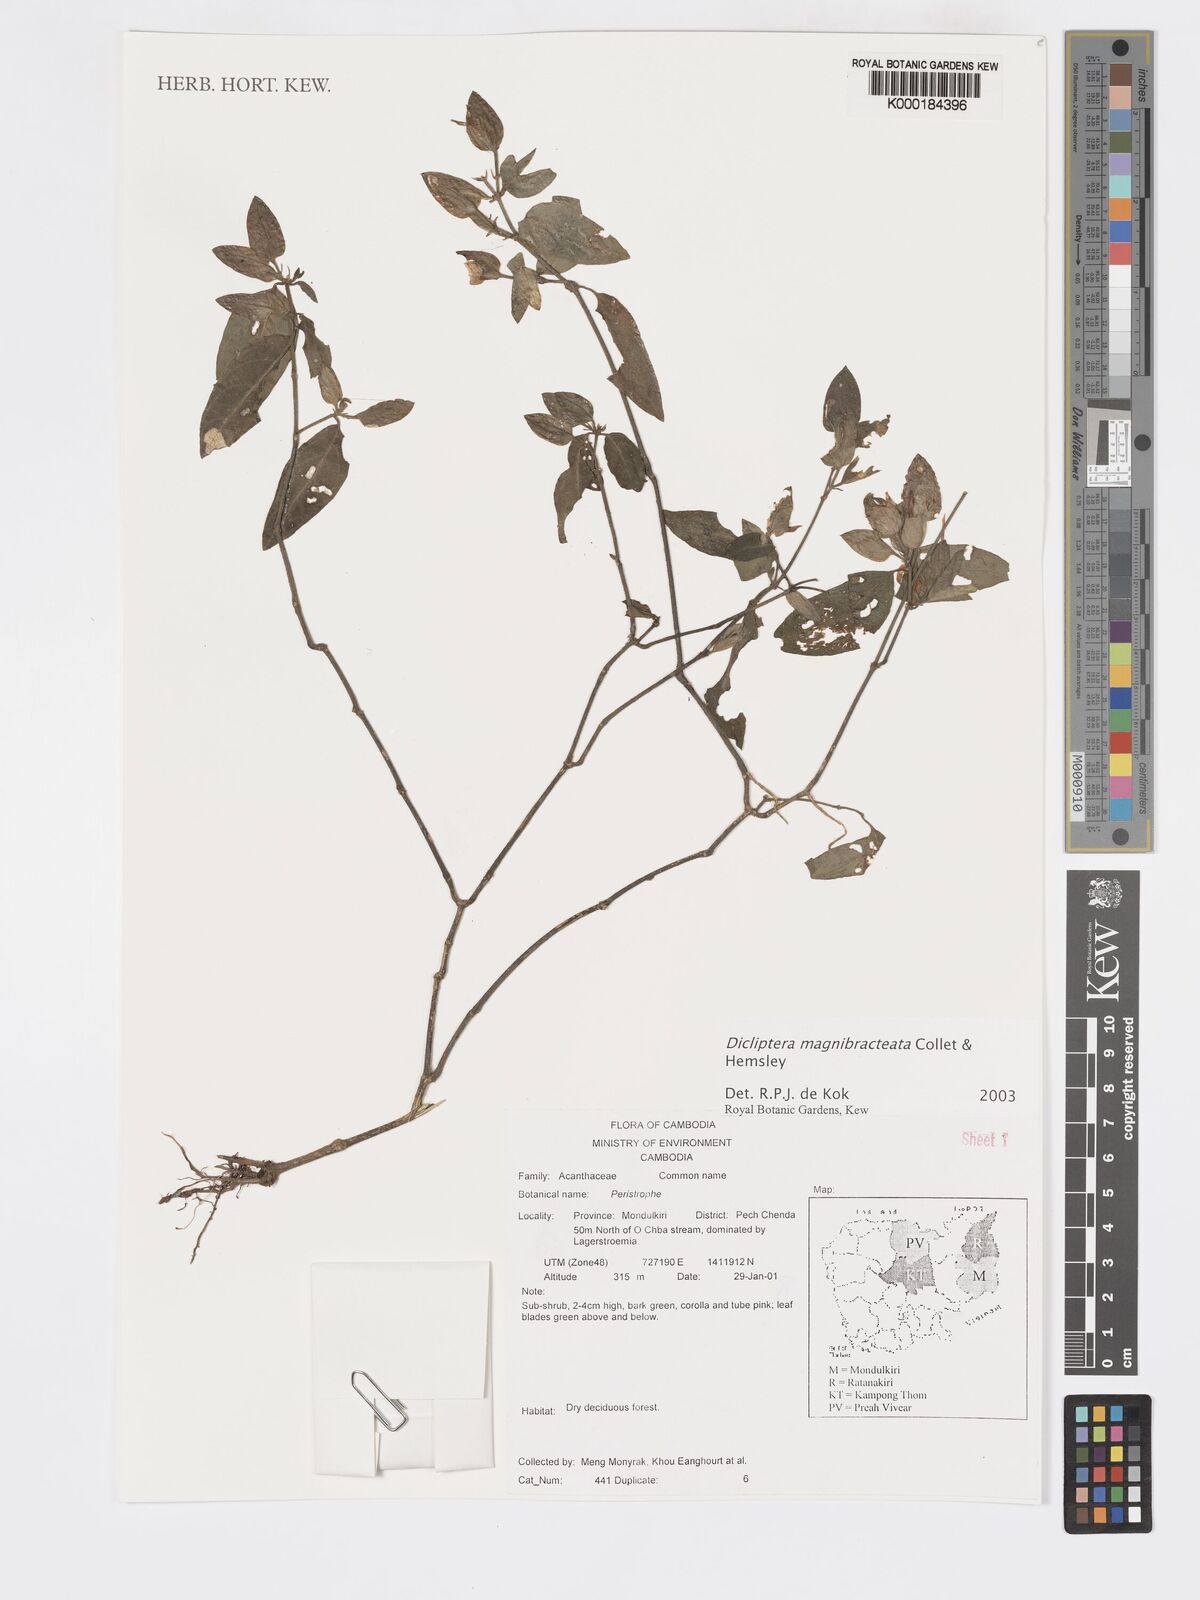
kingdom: Plantae
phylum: Tracheophyta
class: Magnoliopsida
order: Lamiales
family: Acanthaceae
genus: Dicliptera
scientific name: Dicliptera magnibracteata
